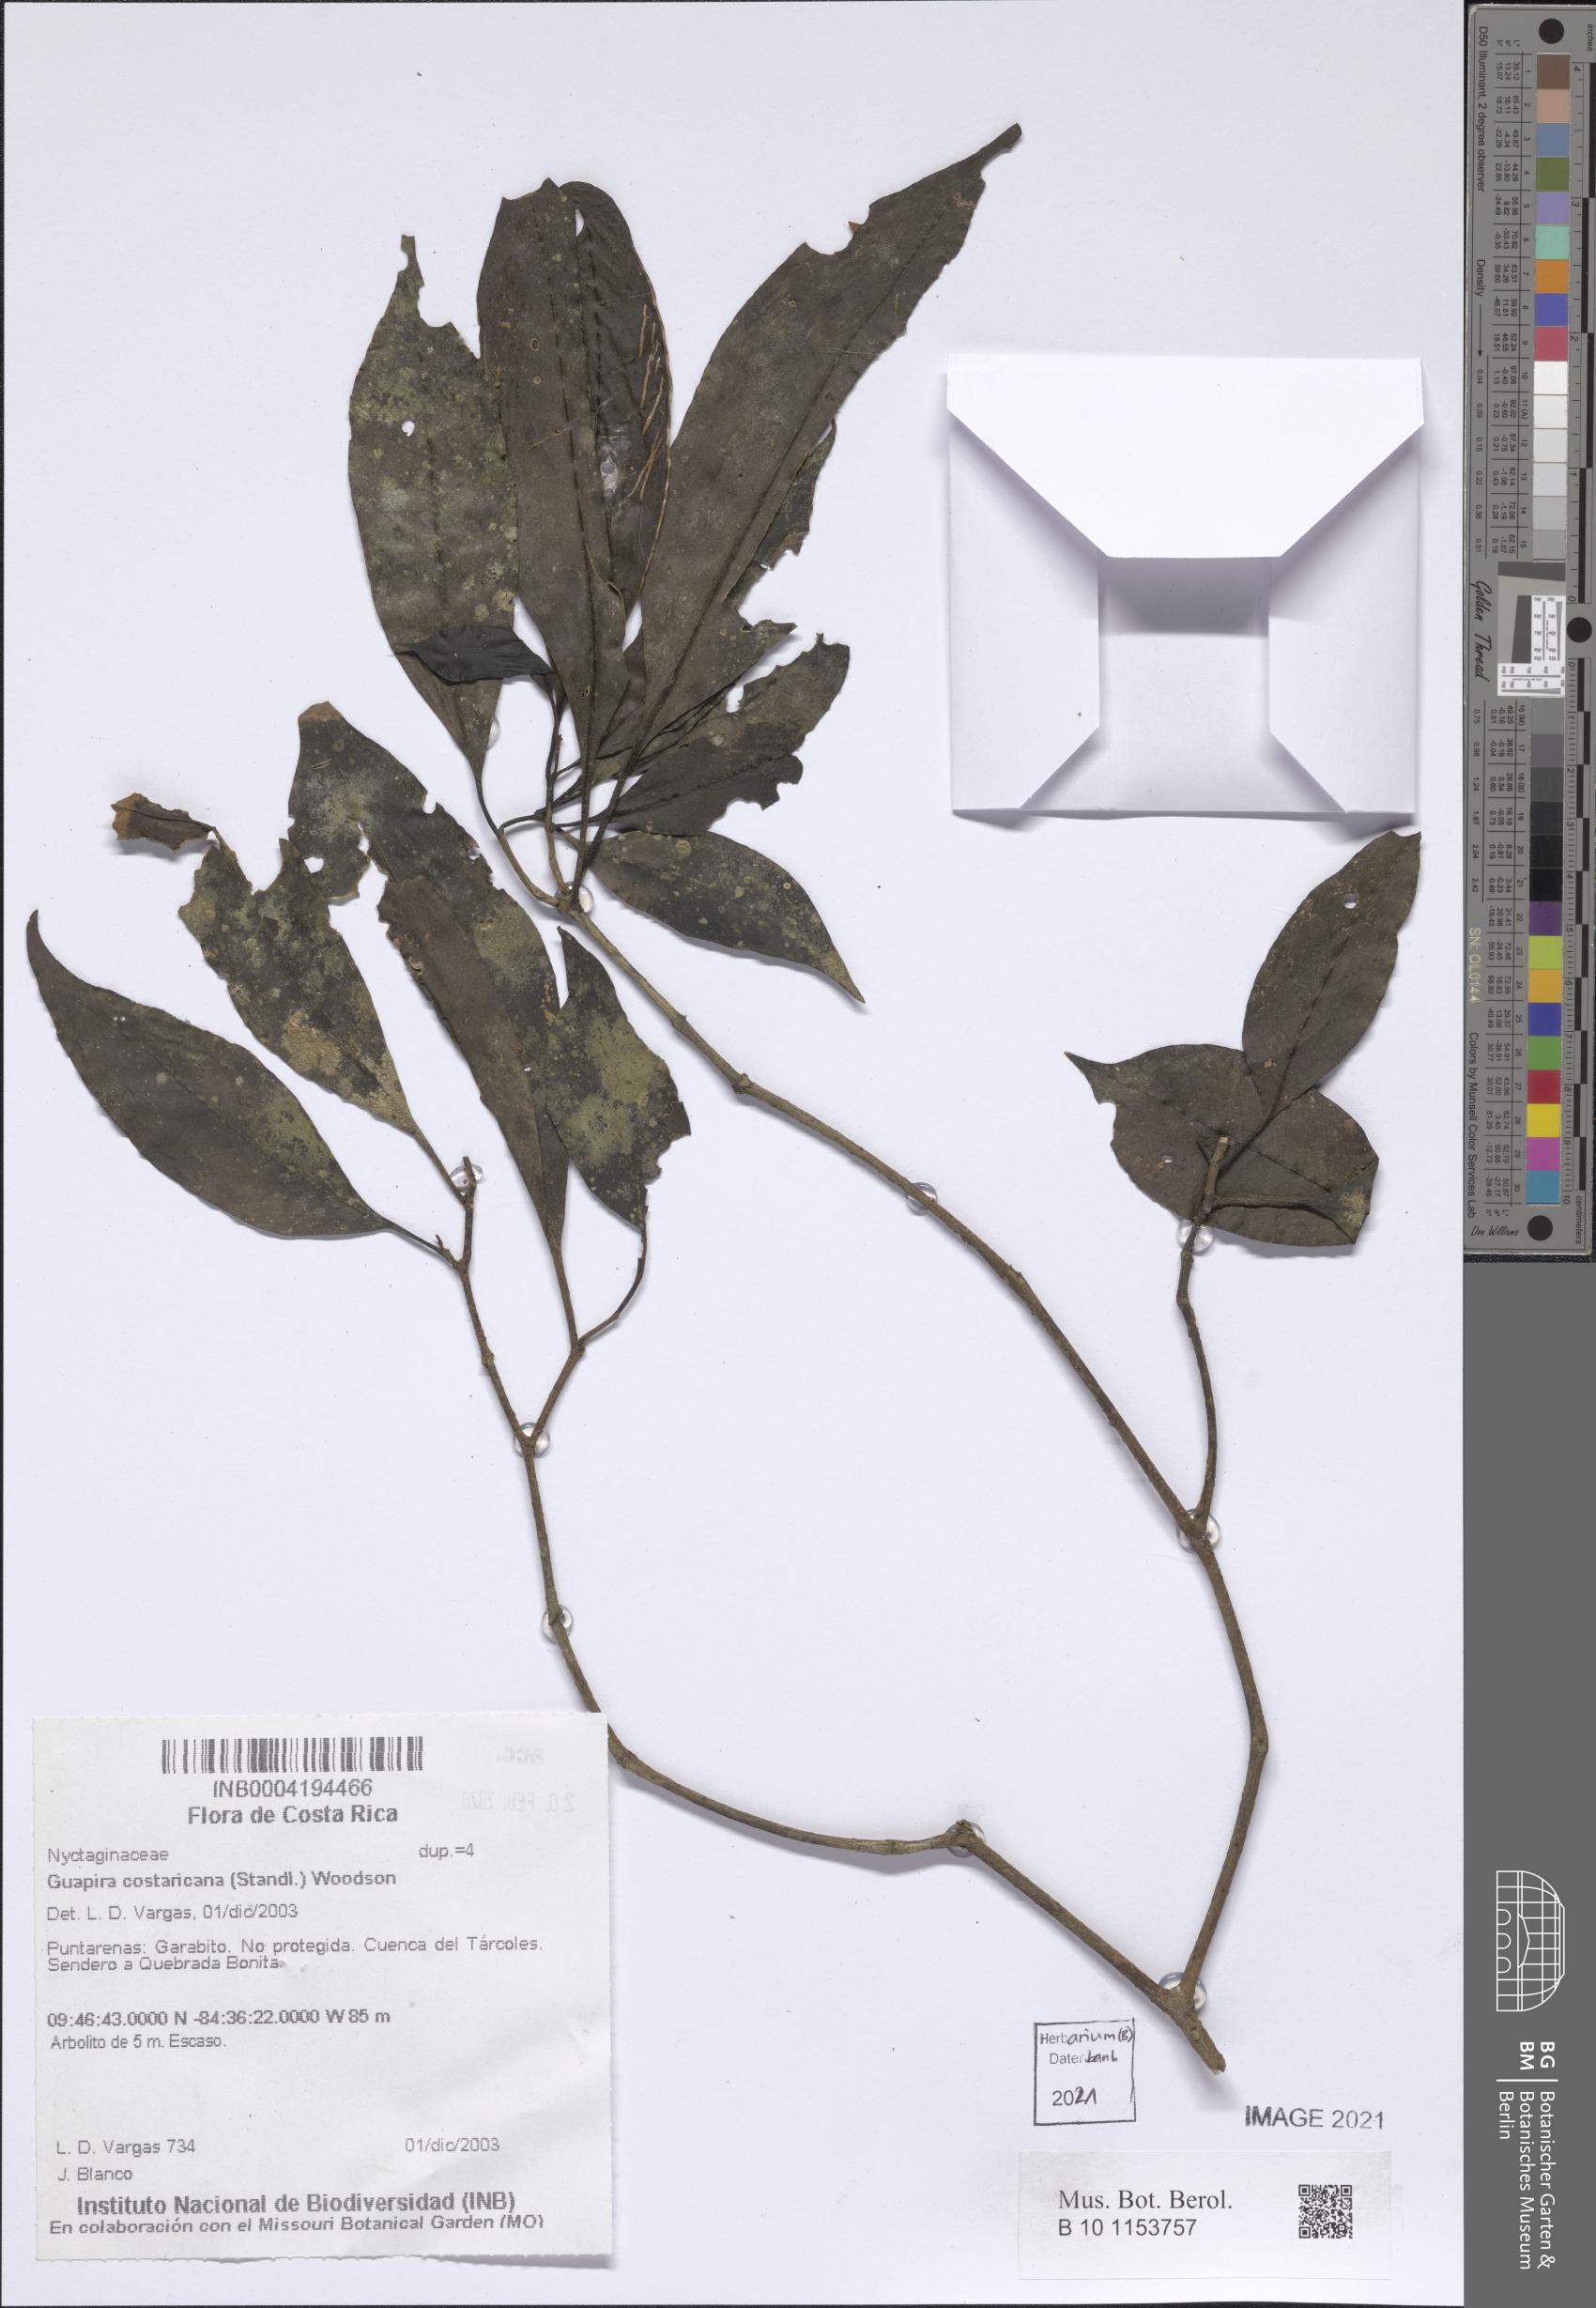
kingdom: Plantae
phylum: Tracheophyta
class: Magnoliopsida
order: Caryophyllales
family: Nyctaginaceae
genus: Guapira
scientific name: Guapira costaricana
